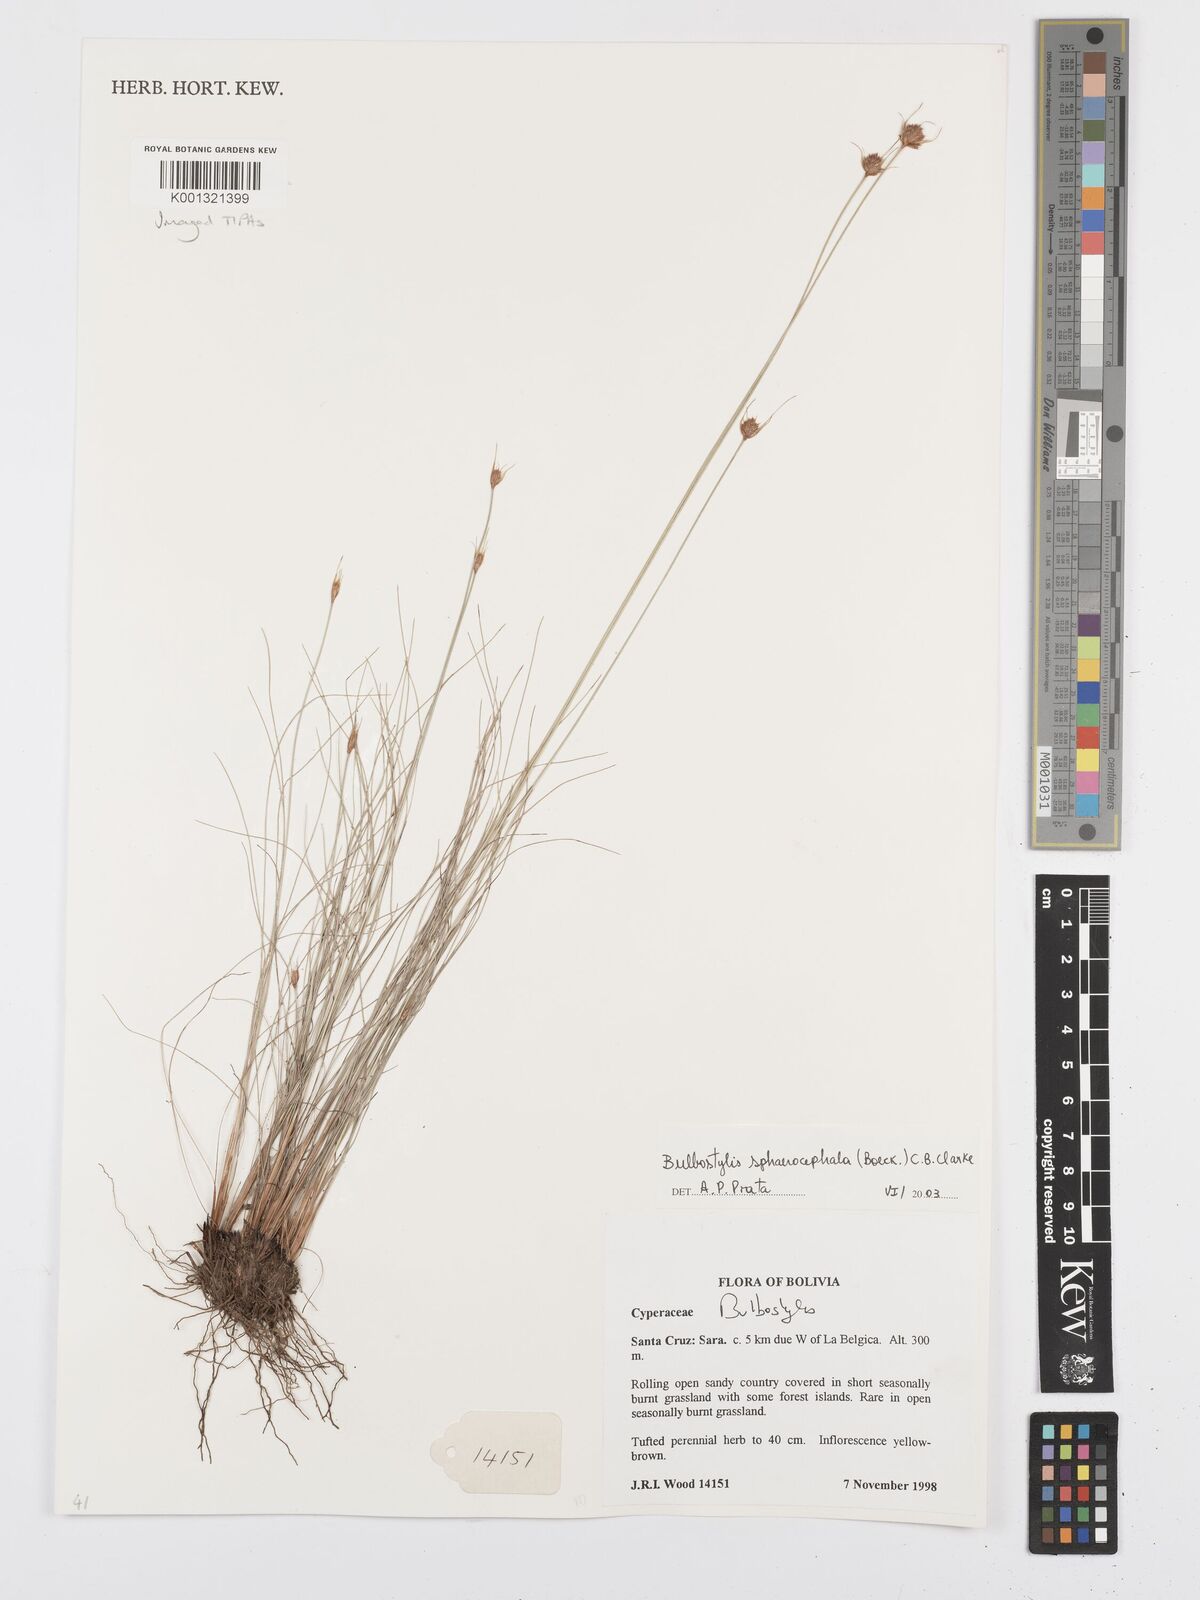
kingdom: Plantae
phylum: Tracheophyta
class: Liliopsida
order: Poales
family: Cyperaceae
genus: Bulbostylis
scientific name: Bulbostylis sphaerocephala
